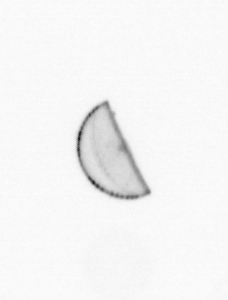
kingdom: Chromista
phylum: Ochrophyta
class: Bacillariophyceae
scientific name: Bacillariophyceae
